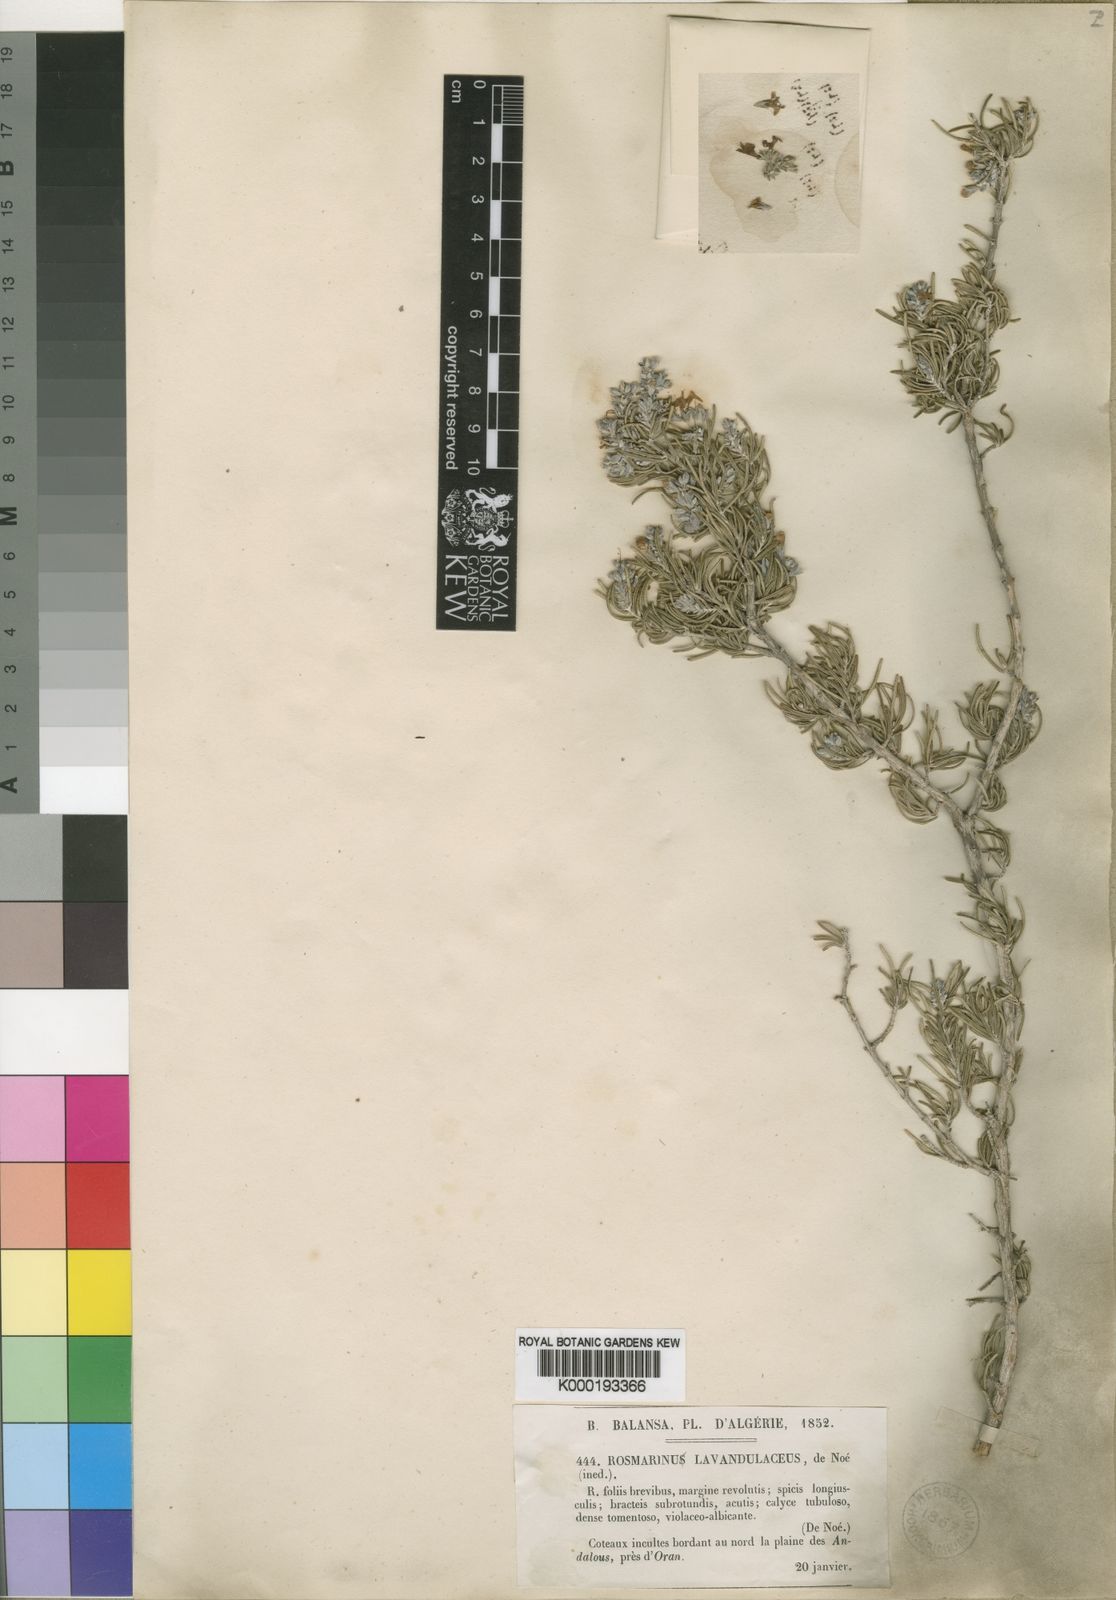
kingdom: Plantae
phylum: Tracheophyta
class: Magnoliopsida
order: Lamiales
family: Lamiaceae
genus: Salvia
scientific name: Salvia
